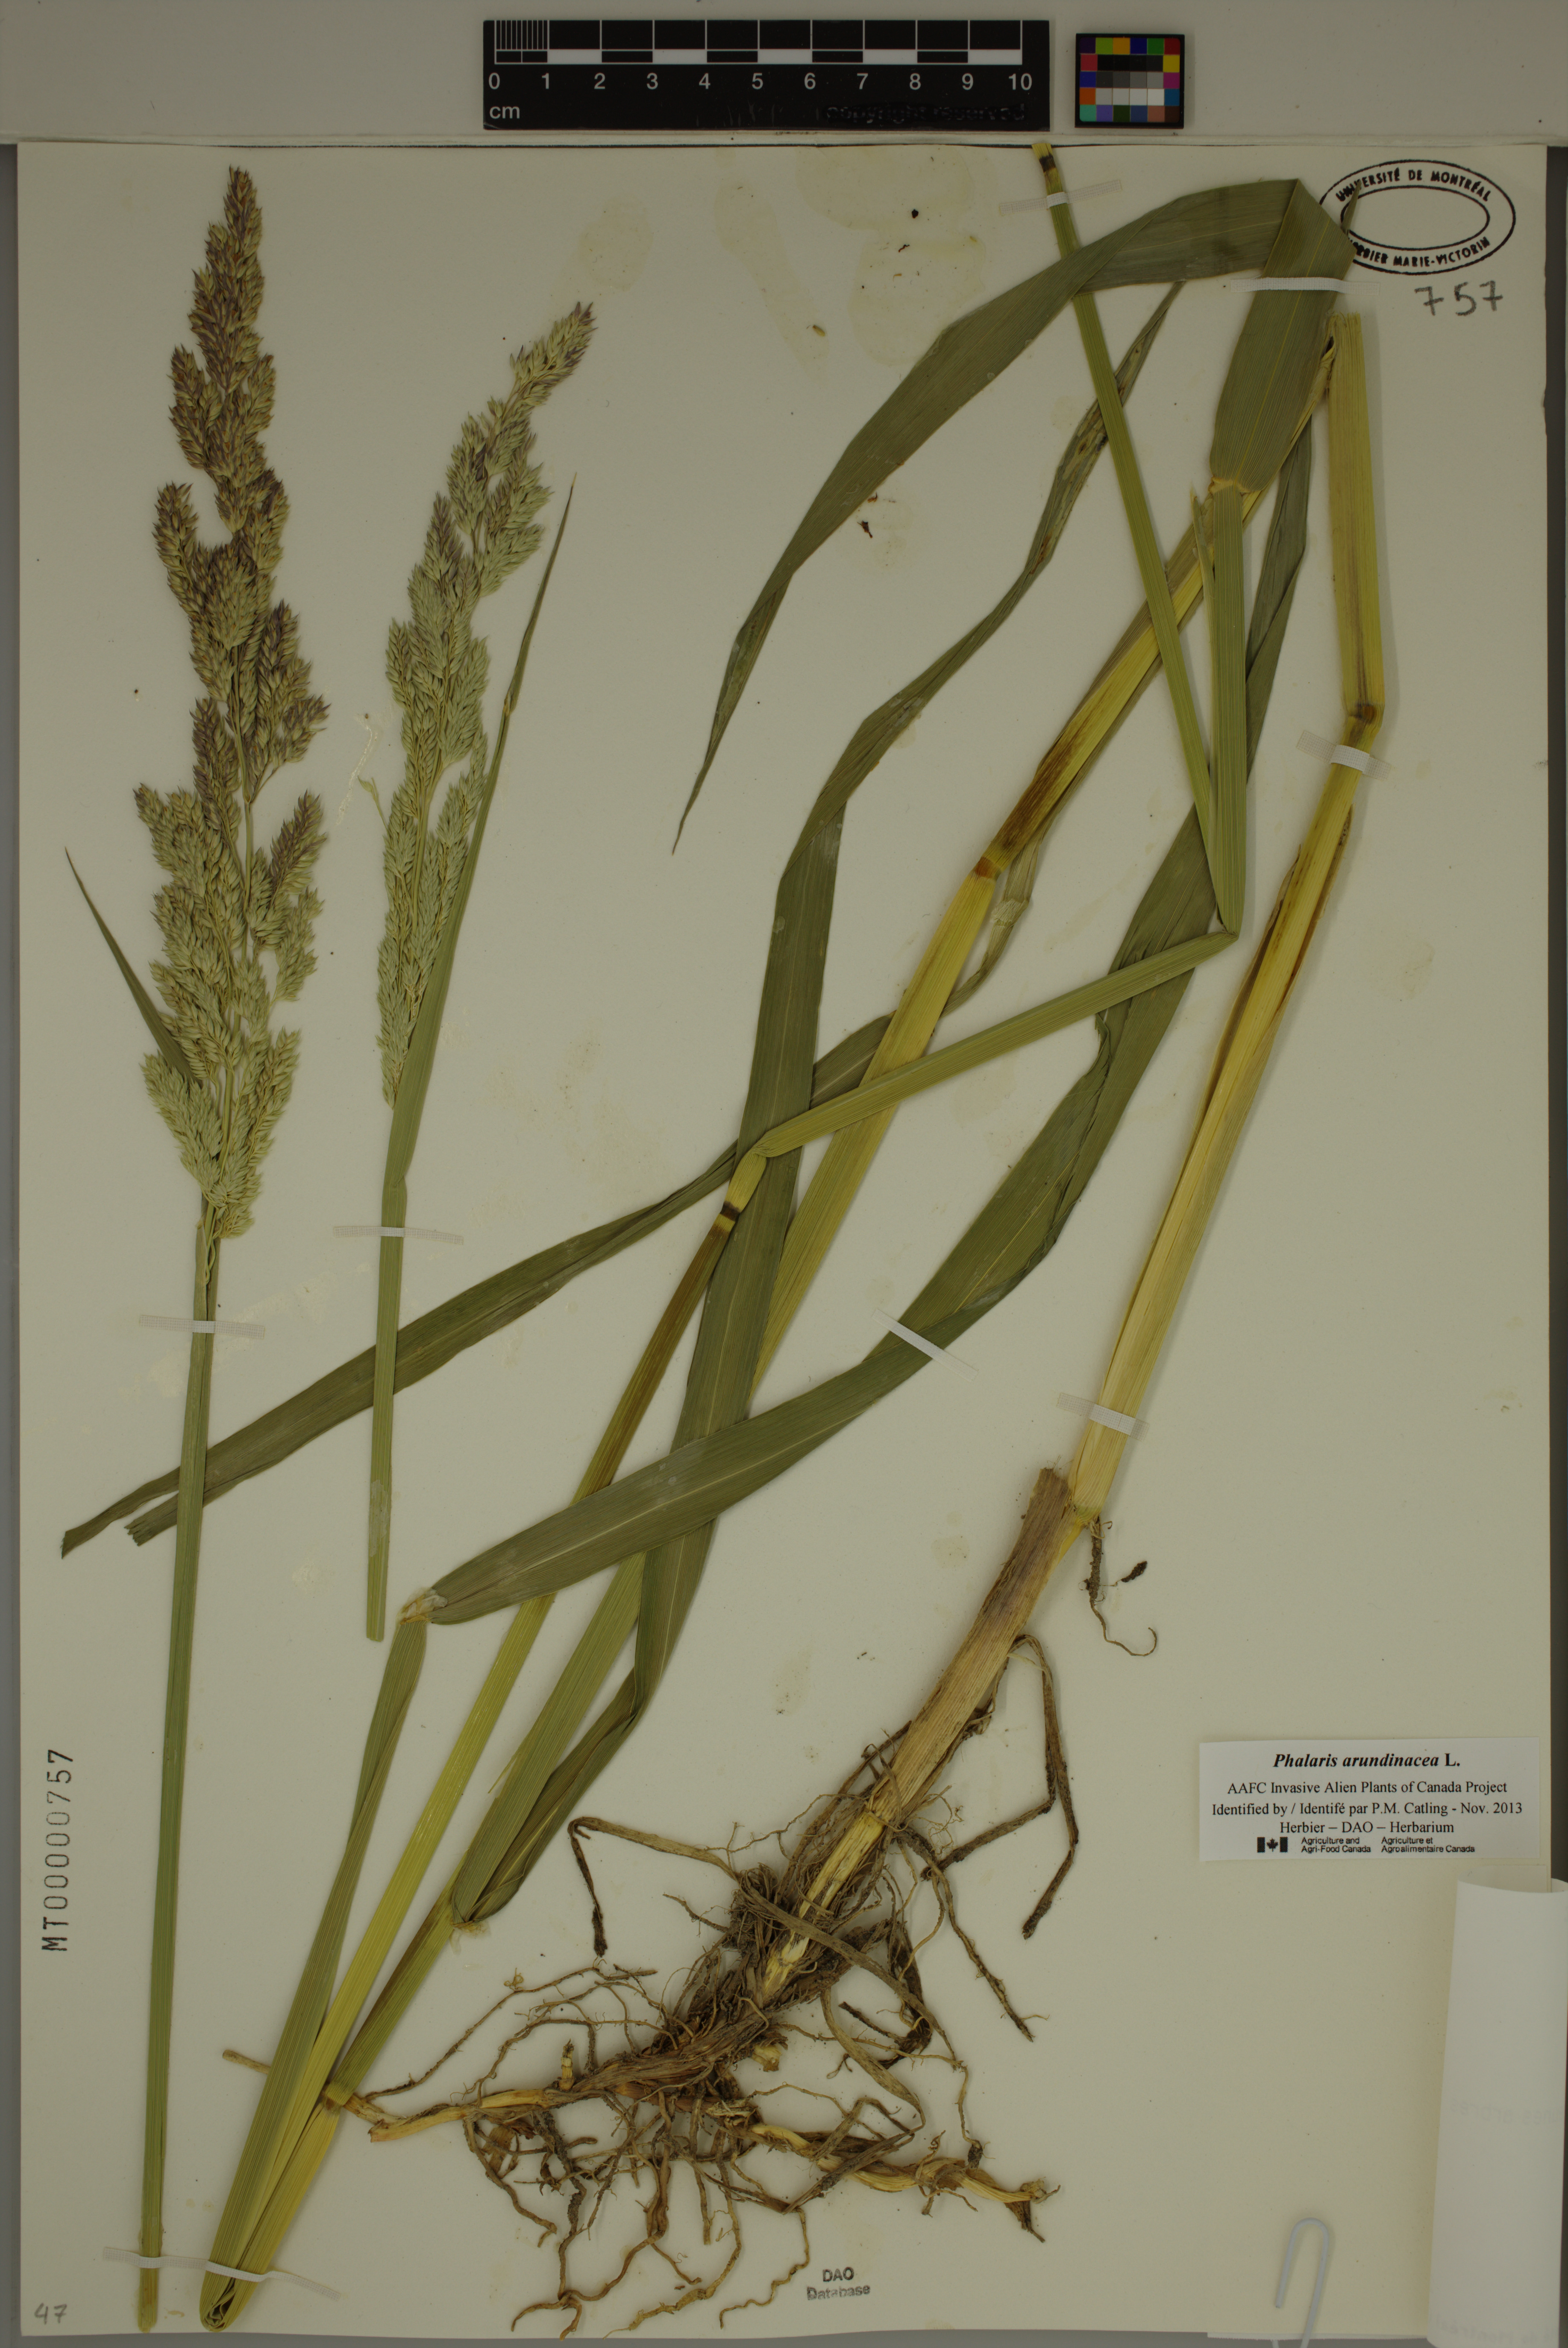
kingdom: Plantae
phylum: Tracheophyta
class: Liliopsida
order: Poales
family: Poaceae
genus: Phalaris
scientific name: Phalaris arundinacea
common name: Reed canary-grass
